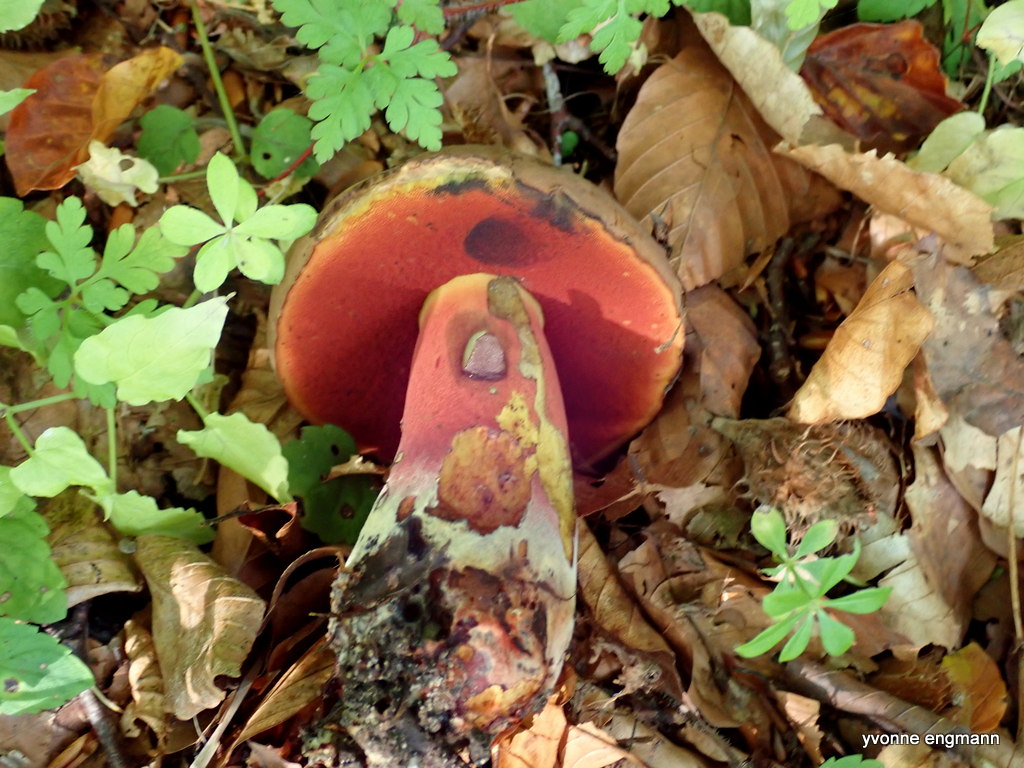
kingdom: Fungi
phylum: Basidiomycota
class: Agaricomycetes
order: Boletales
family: Boletaceae
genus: Neoboletus
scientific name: Neoboletus erythropus
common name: punktstokket indigorørhat
